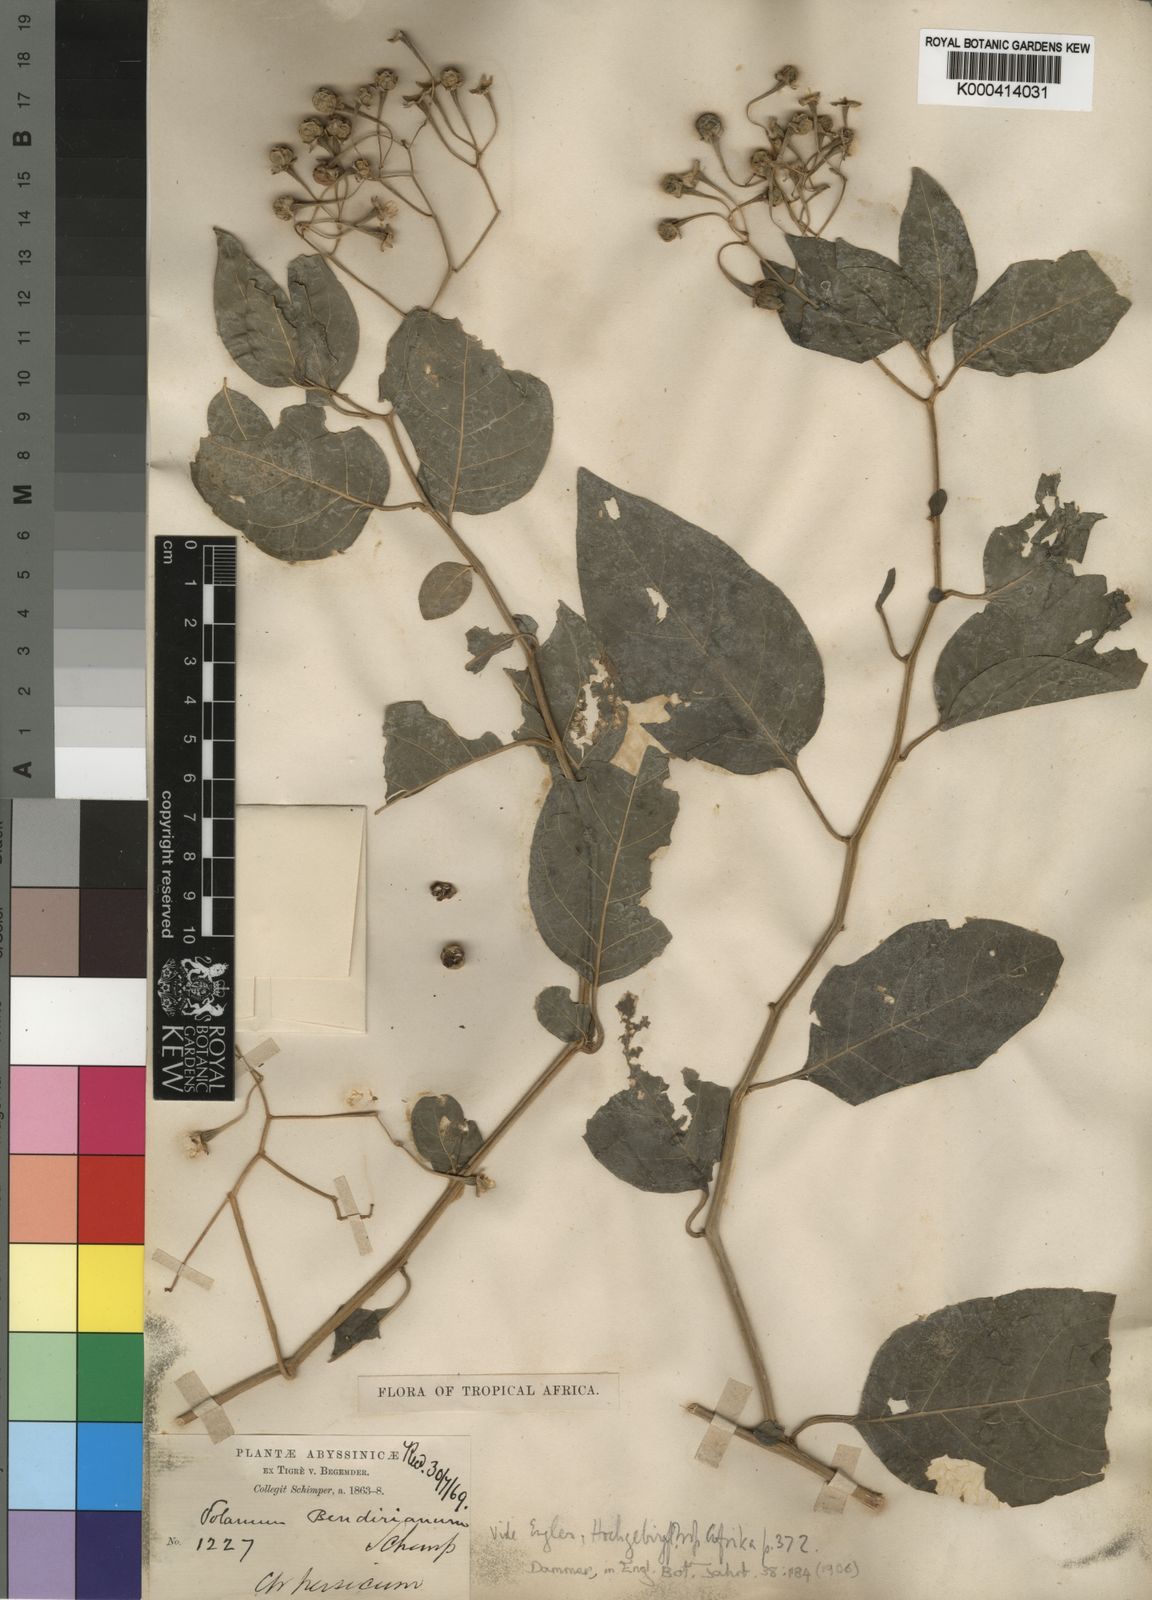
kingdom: Plantae
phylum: Tracheophyta
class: Magnoliopsida
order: Solanales
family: Solanaceae
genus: Solanum
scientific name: Solanum runsoriense
